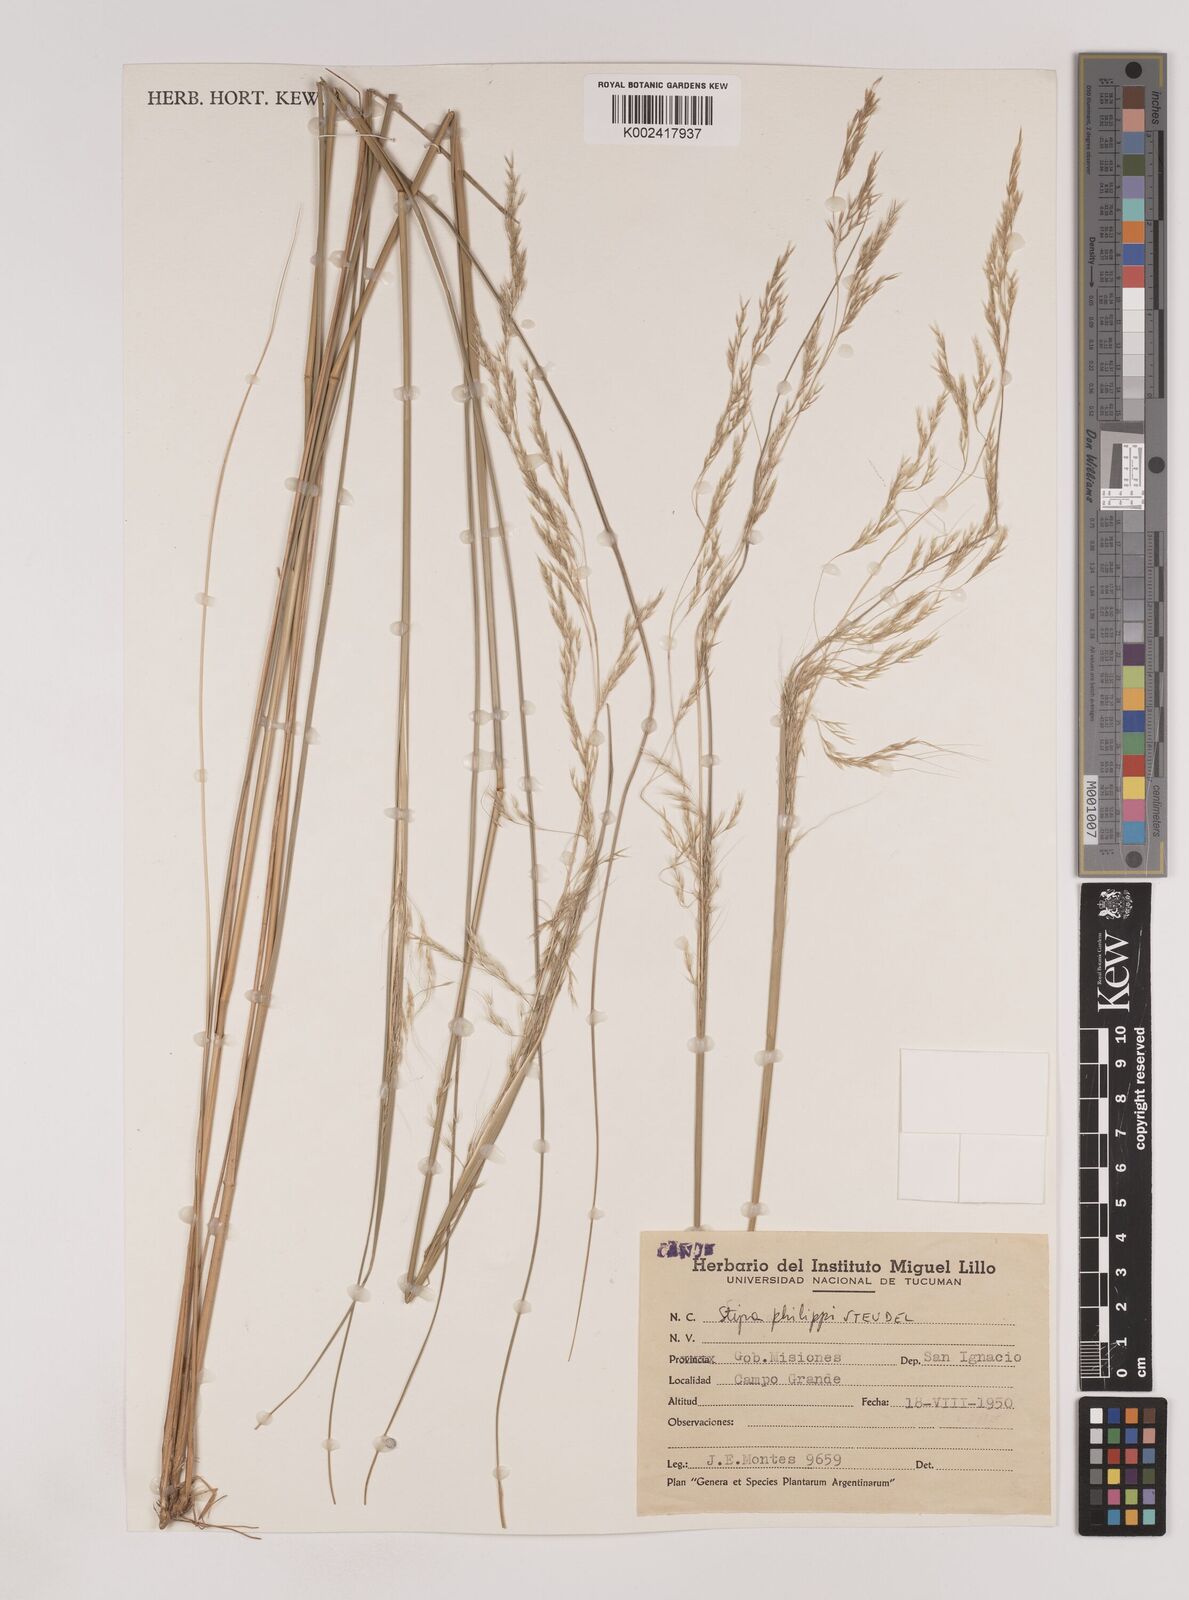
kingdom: Plantae
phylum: Tracheophyta
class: Liliopsida
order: Poales
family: Poaceae
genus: Nassella
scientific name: Nassella philippii
